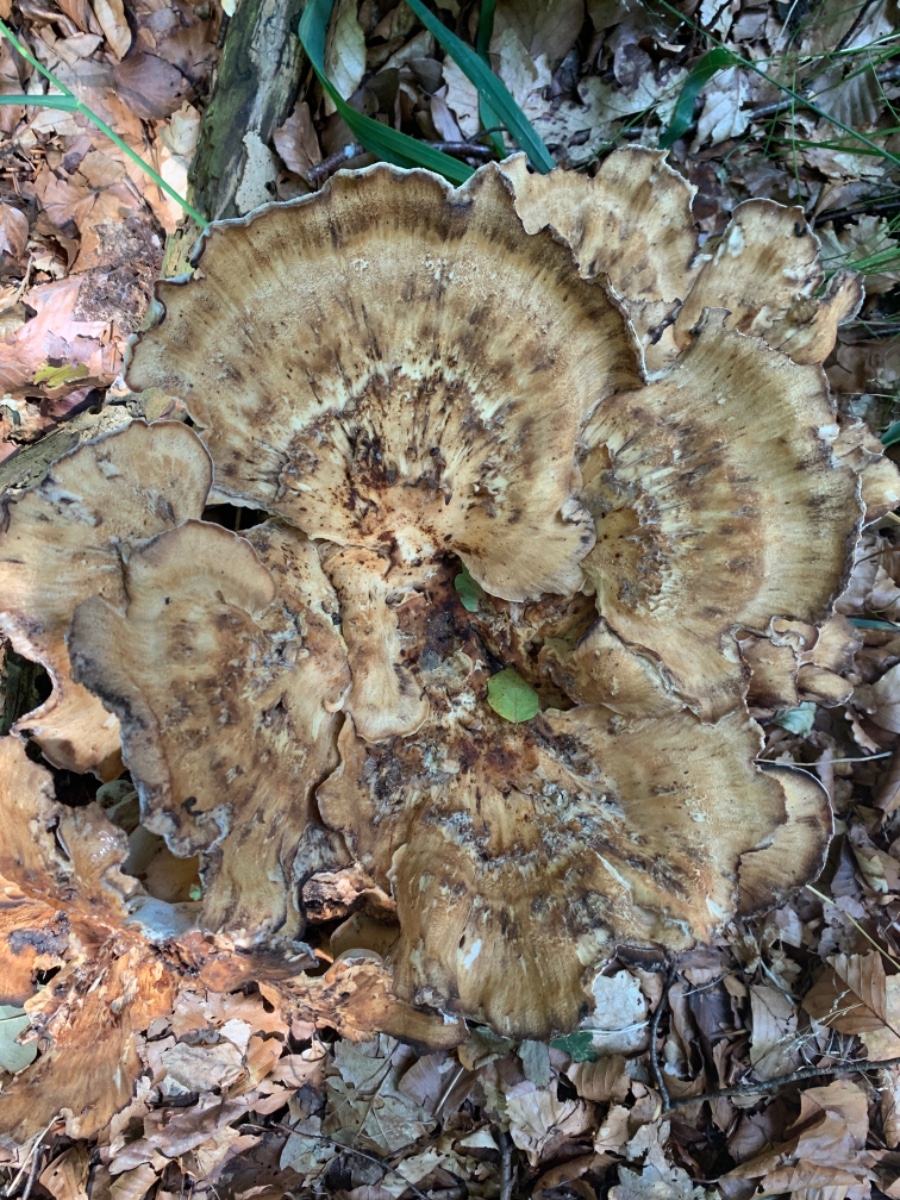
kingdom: Fungi
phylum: Basidiomycota
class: Agaricomycetes
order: Polyporales
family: Meripilaceae
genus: Meripilus
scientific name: Meripilus giganteus
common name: kæmpeporesvamp
